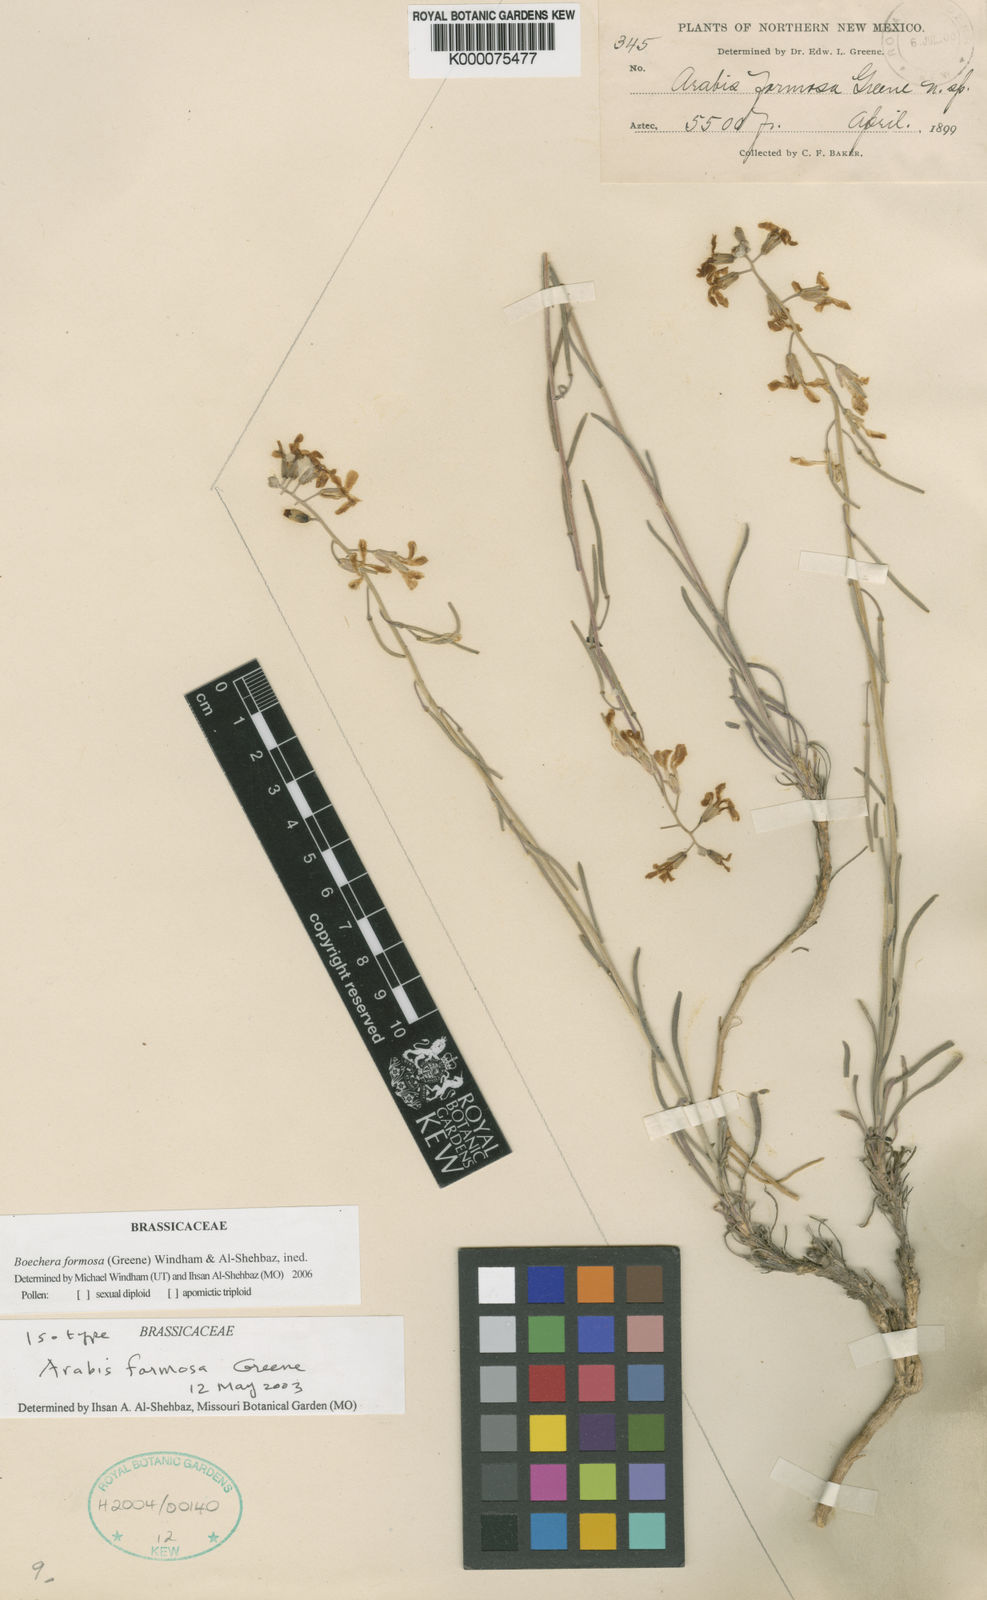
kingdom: Plantae
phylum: Tracheophyta
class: Magnoliopsida
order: Brassicales
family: Brassicaceae
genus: Boechera
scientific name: Boechera formosa
